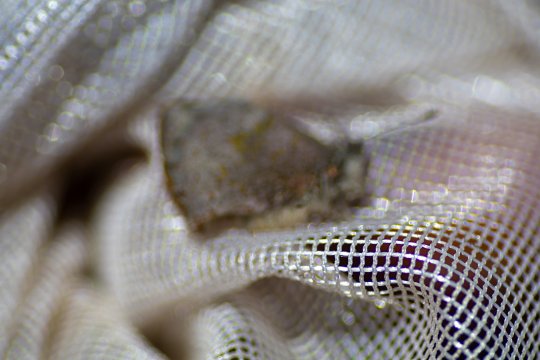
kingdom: Animalia
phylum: Arthropoda
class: Insecta
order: Lepidoptera
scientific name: Lepidoptera
